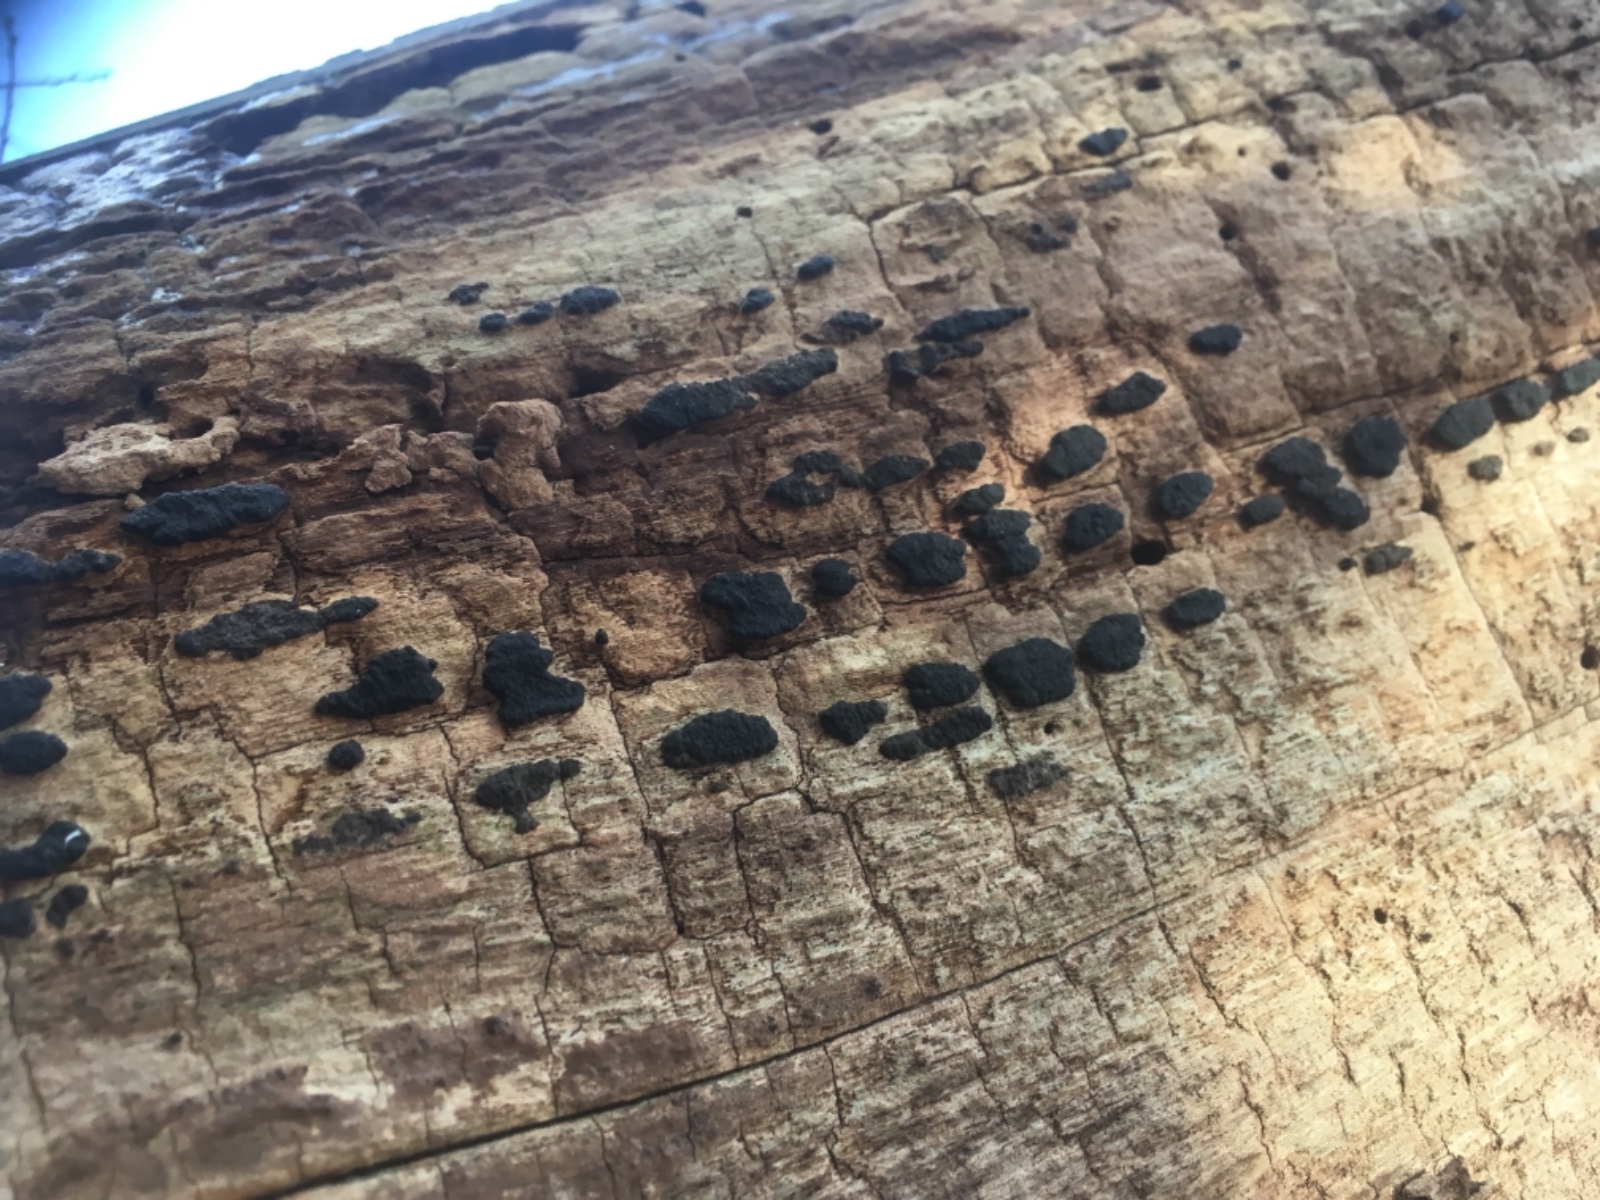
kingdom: Fungi
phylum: Ascomycota
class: Sordariomycetes
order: Xylariales
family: Xylariaceae
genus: Nemania
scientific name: Nemania
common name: kuldyne
